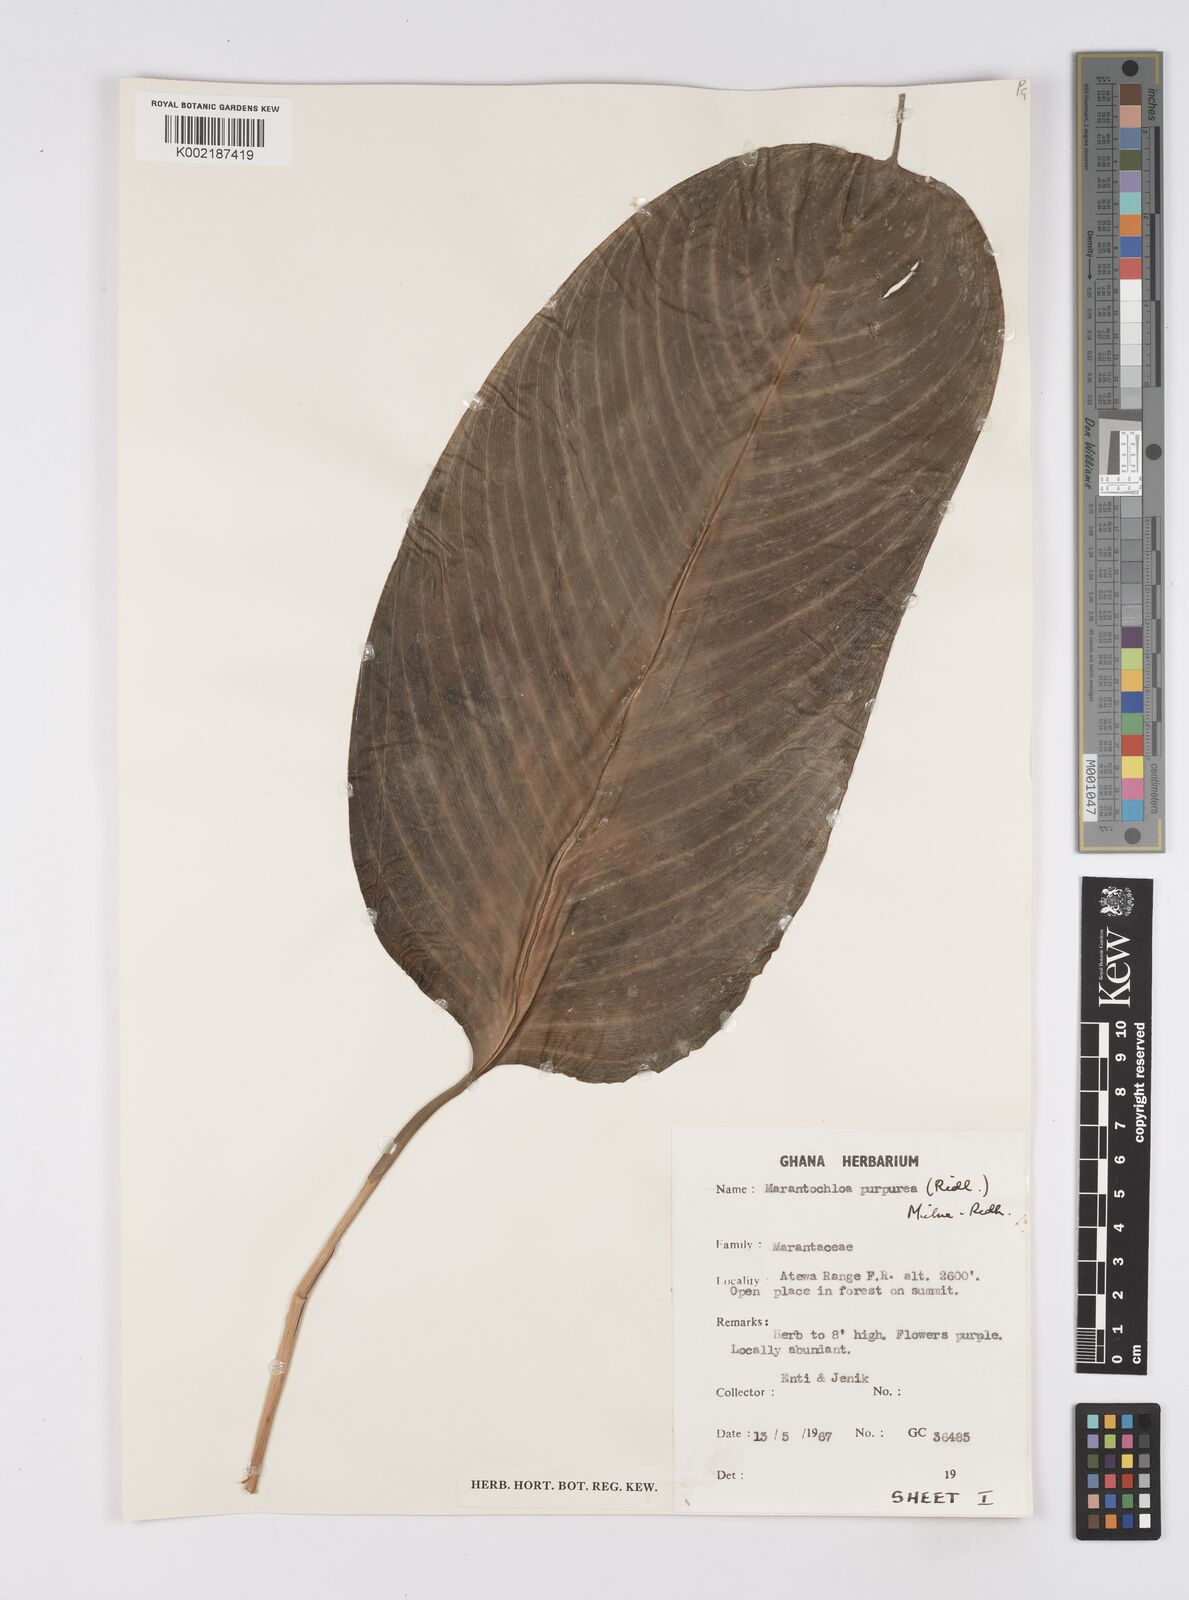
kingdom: Plantae
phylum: Tracheophyta
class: Liliopsida
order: Zingiberales
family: Marantaceae
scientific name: Marantaceae
